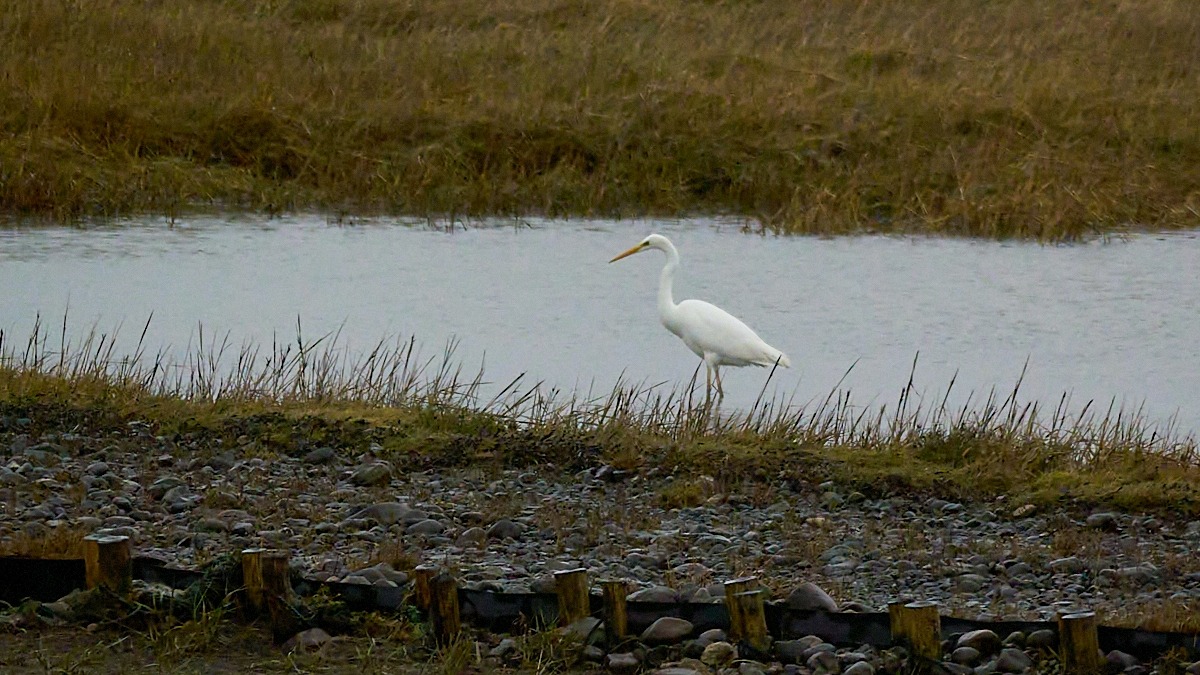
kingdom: Animalia
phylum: Chordata
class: Aves
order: Pelecaniformes
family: Ardeidae
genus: Ardea
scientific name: Ardea alba
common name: Sølvhejre
